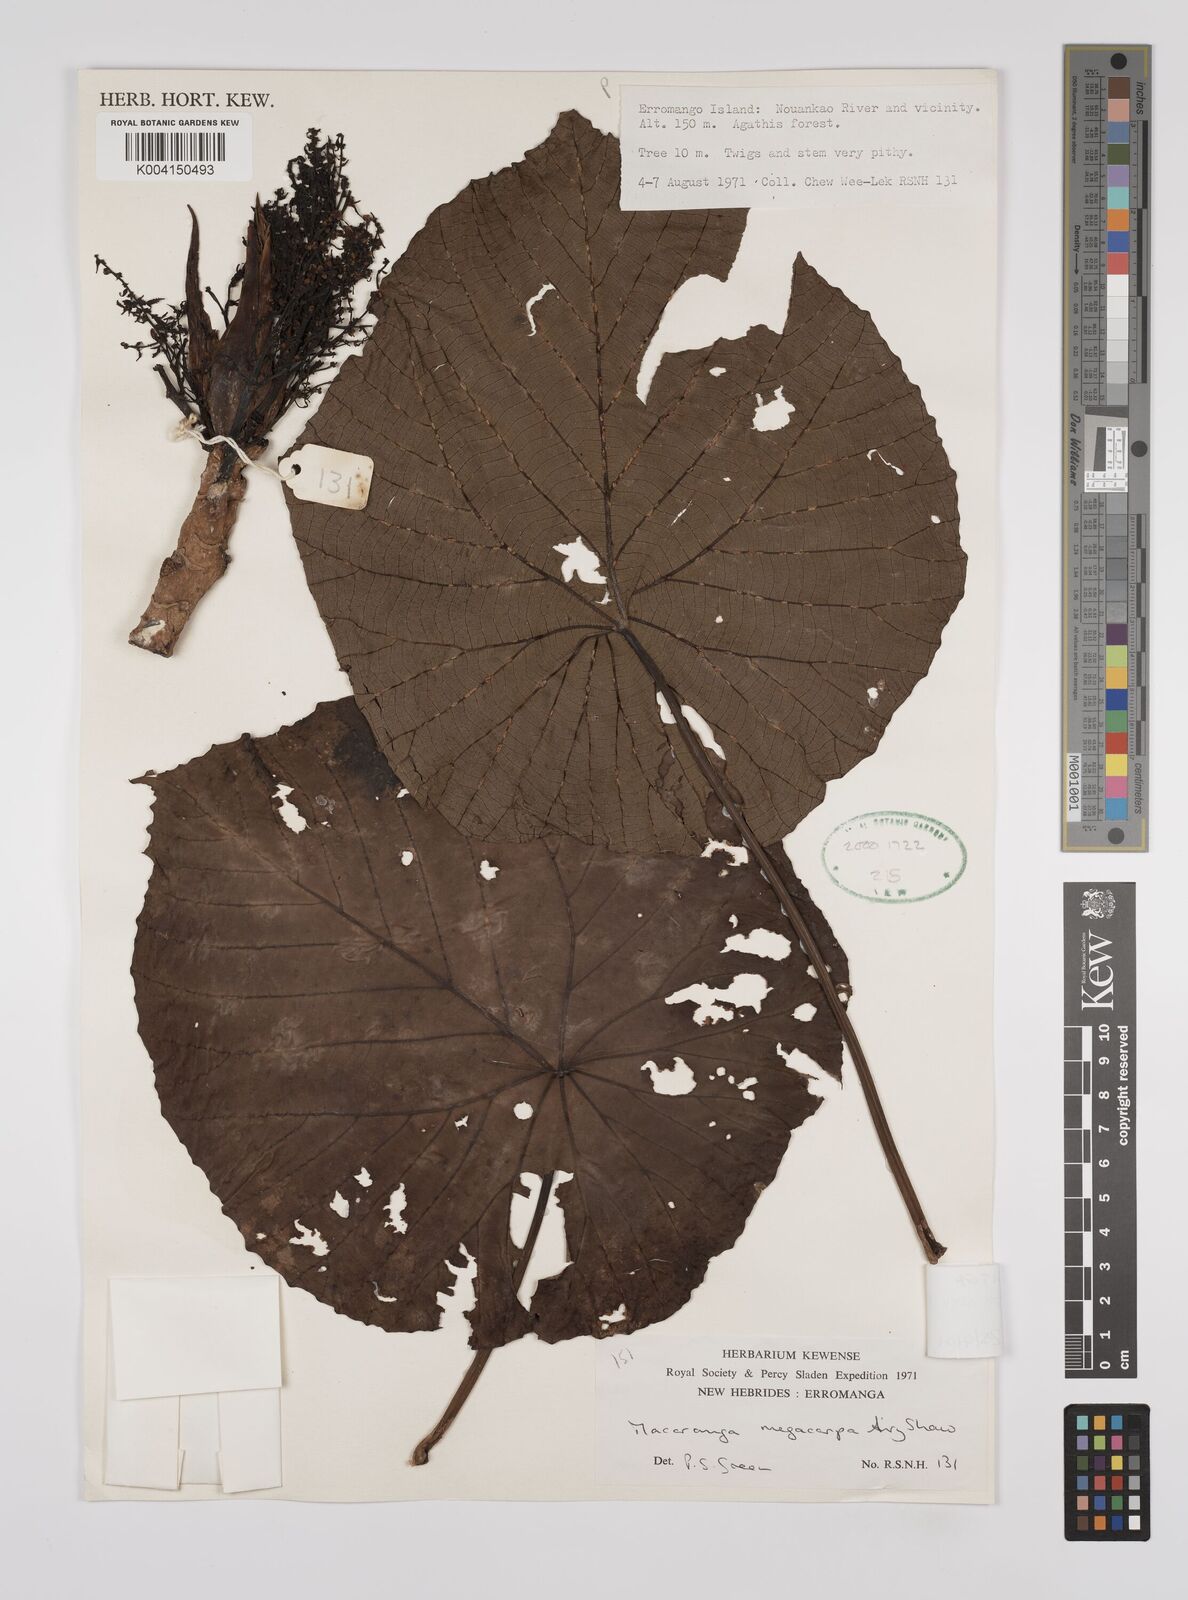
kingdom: Plantae
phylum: Tracheophyta
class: Magnoliopsida
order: Malpighiales
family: Euphorbiaceae
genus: Macaranga
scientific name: Macaranga megacarpa
